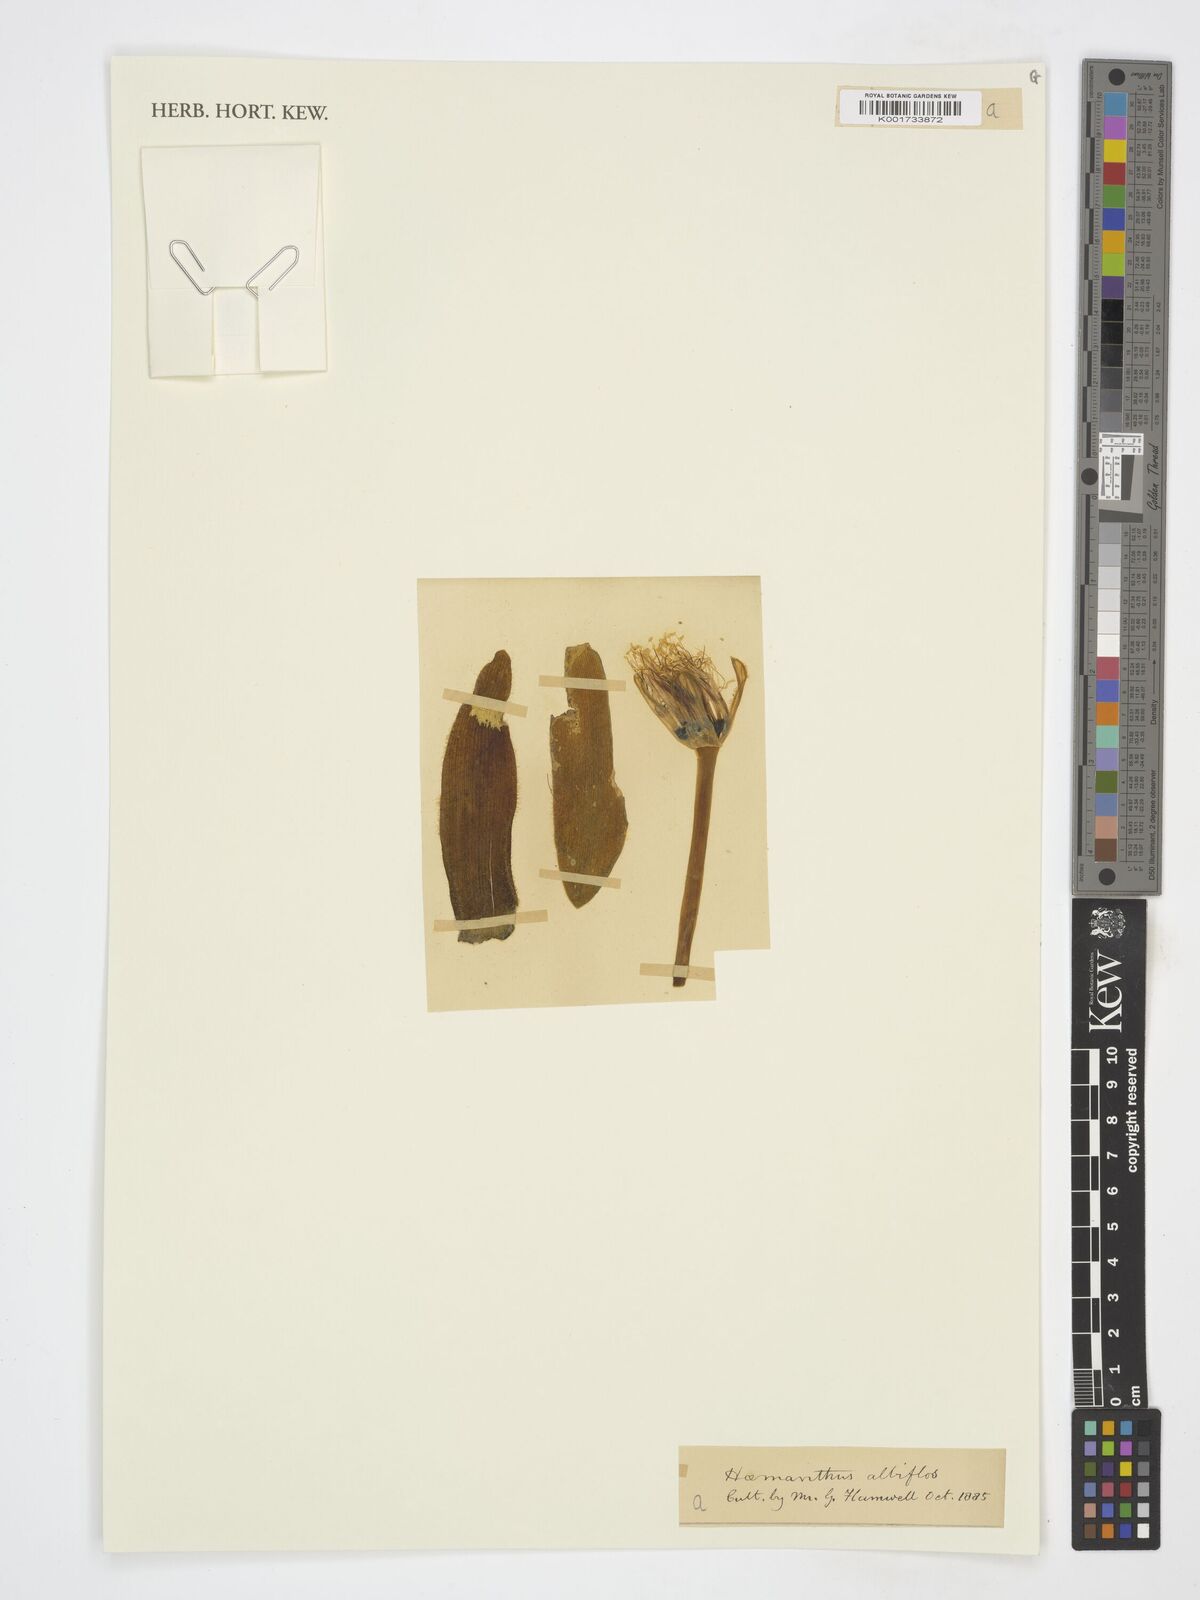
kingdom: Plantae
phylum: Tracheophyta
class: Liliopsida
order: Asparagales
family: Amaryllidaceae
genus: Haemanthus
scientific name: Haemanthus albiflos
